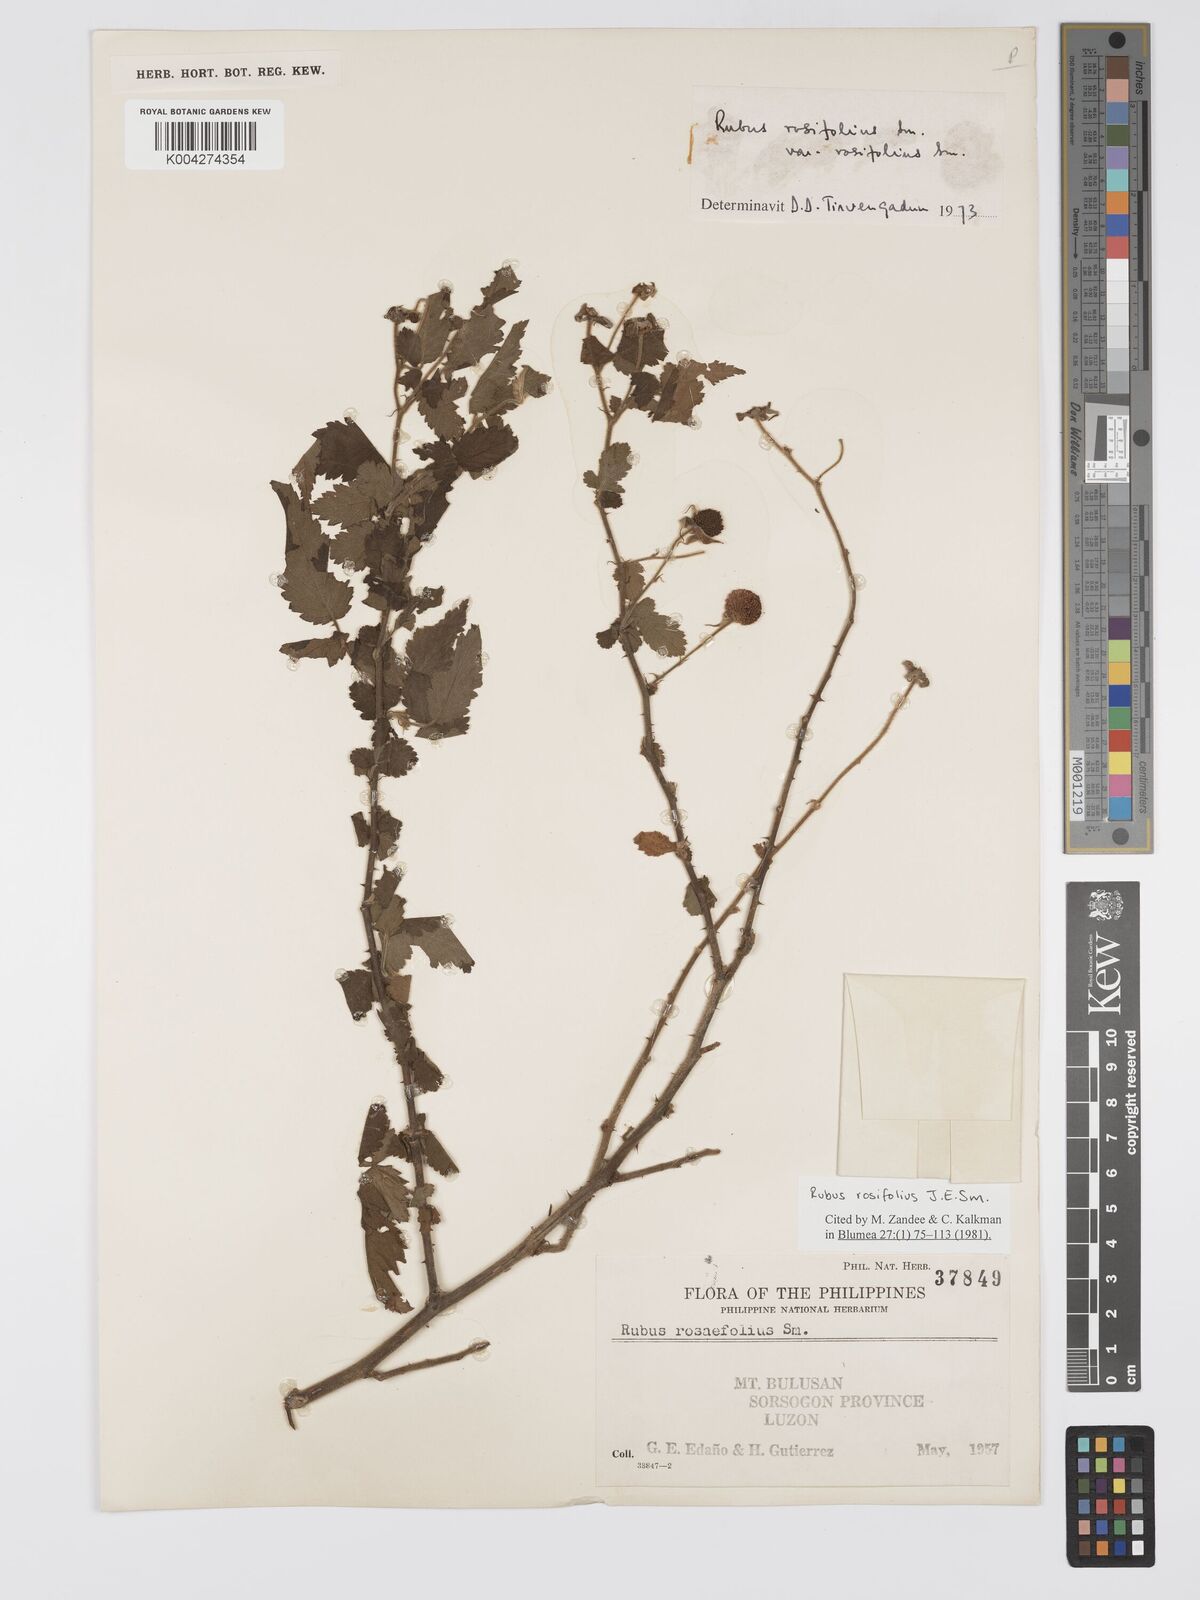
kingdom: Plantae
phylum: Tracheophyta
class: Magnoliopsida
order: Rosales
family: Rosaceae
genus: Rubus
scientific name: Rubus
